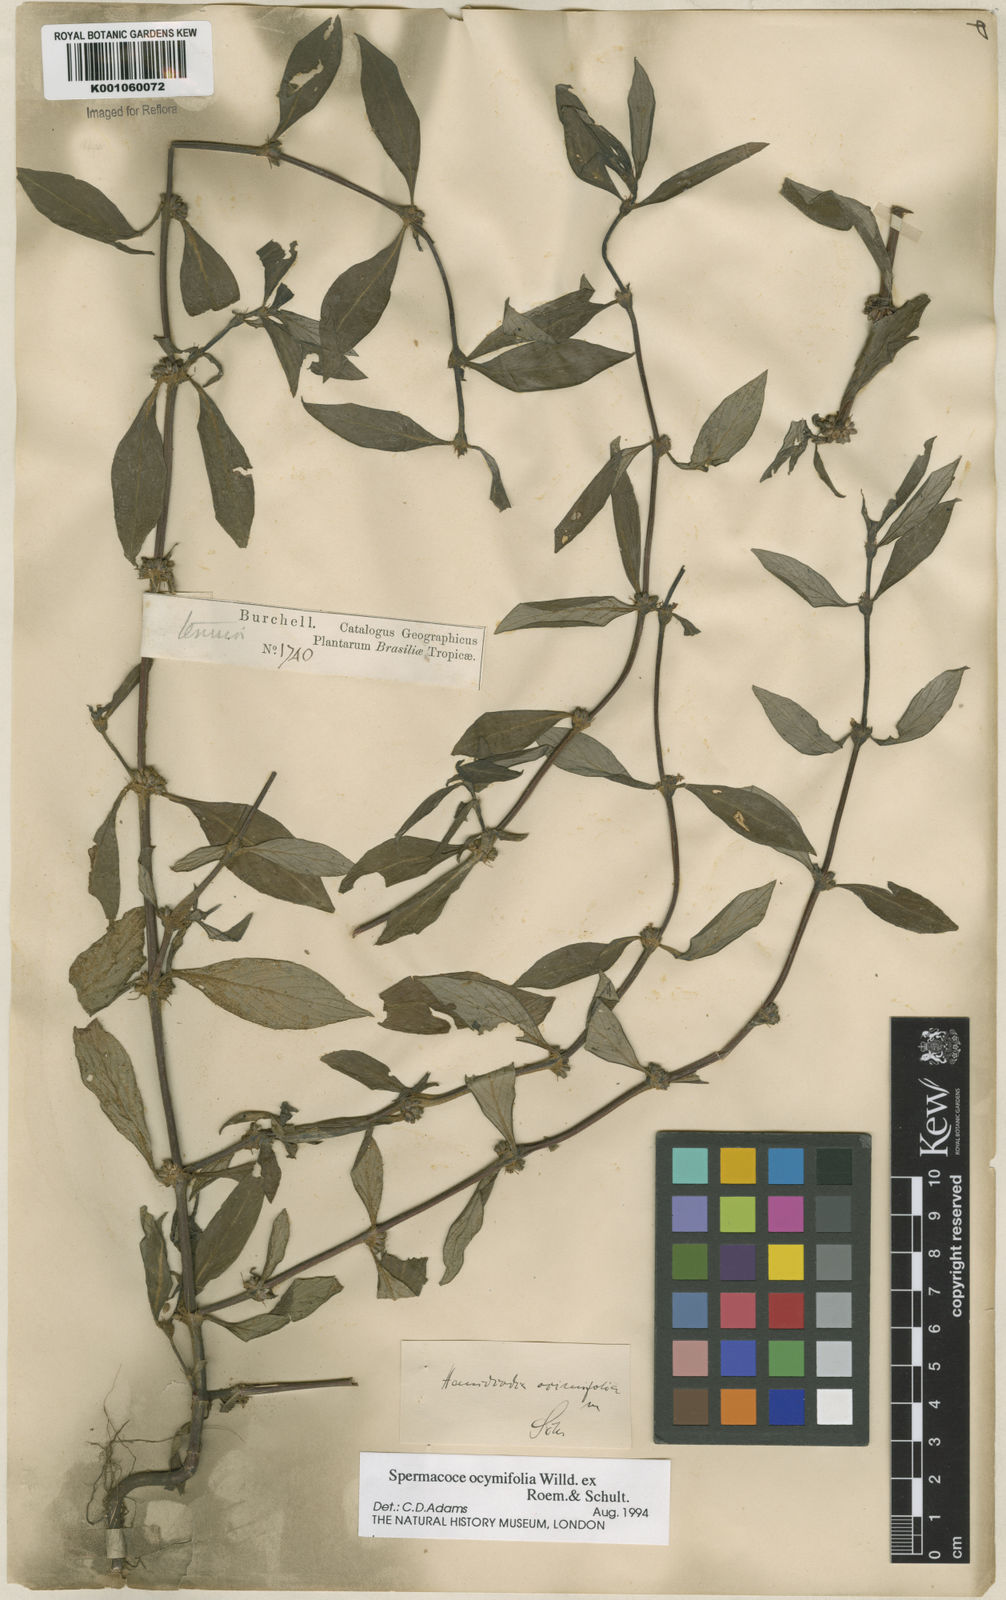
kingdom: Plantae
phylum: Tracheophyta
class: Magnoliopsida
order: Gentianales
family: Rubiaceae
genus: Spermacoce
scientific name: Spermacoce
